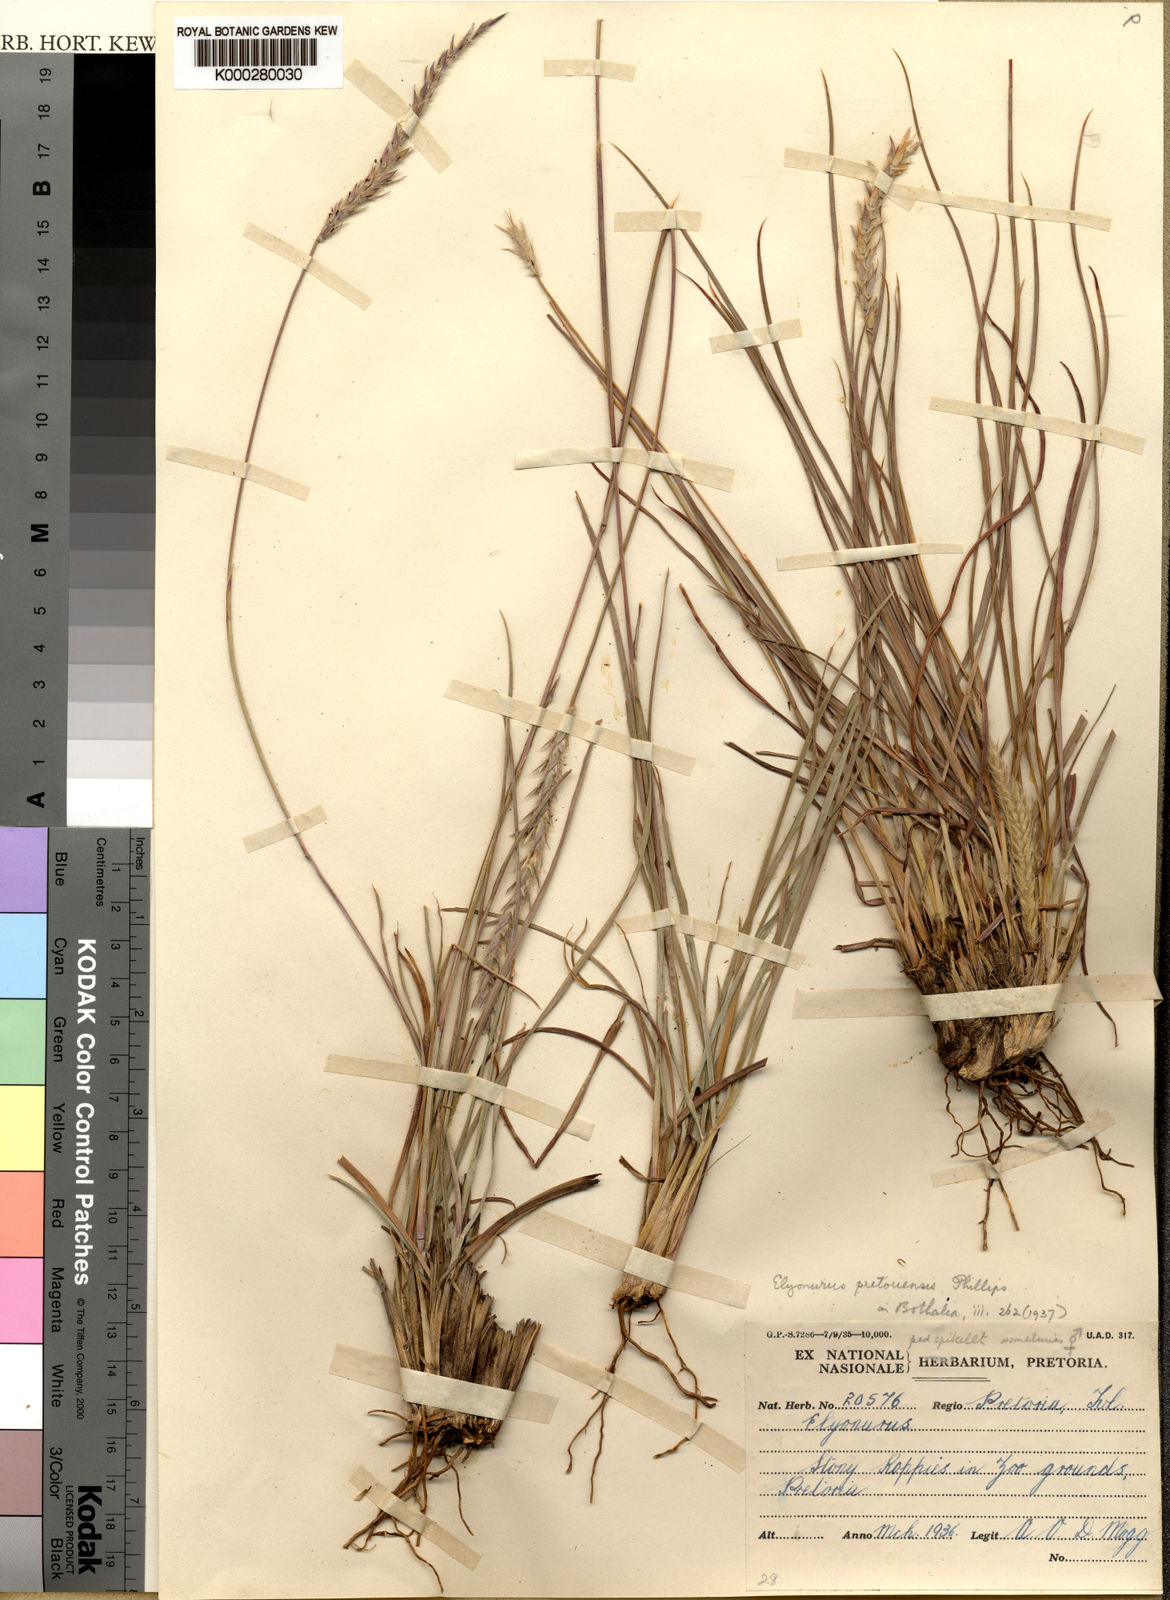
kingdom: Plantae
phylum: Tracheophyta
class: Liliopsida
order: Poales
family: Poaceae
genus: Elionurus
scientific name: Elionurus muticus
